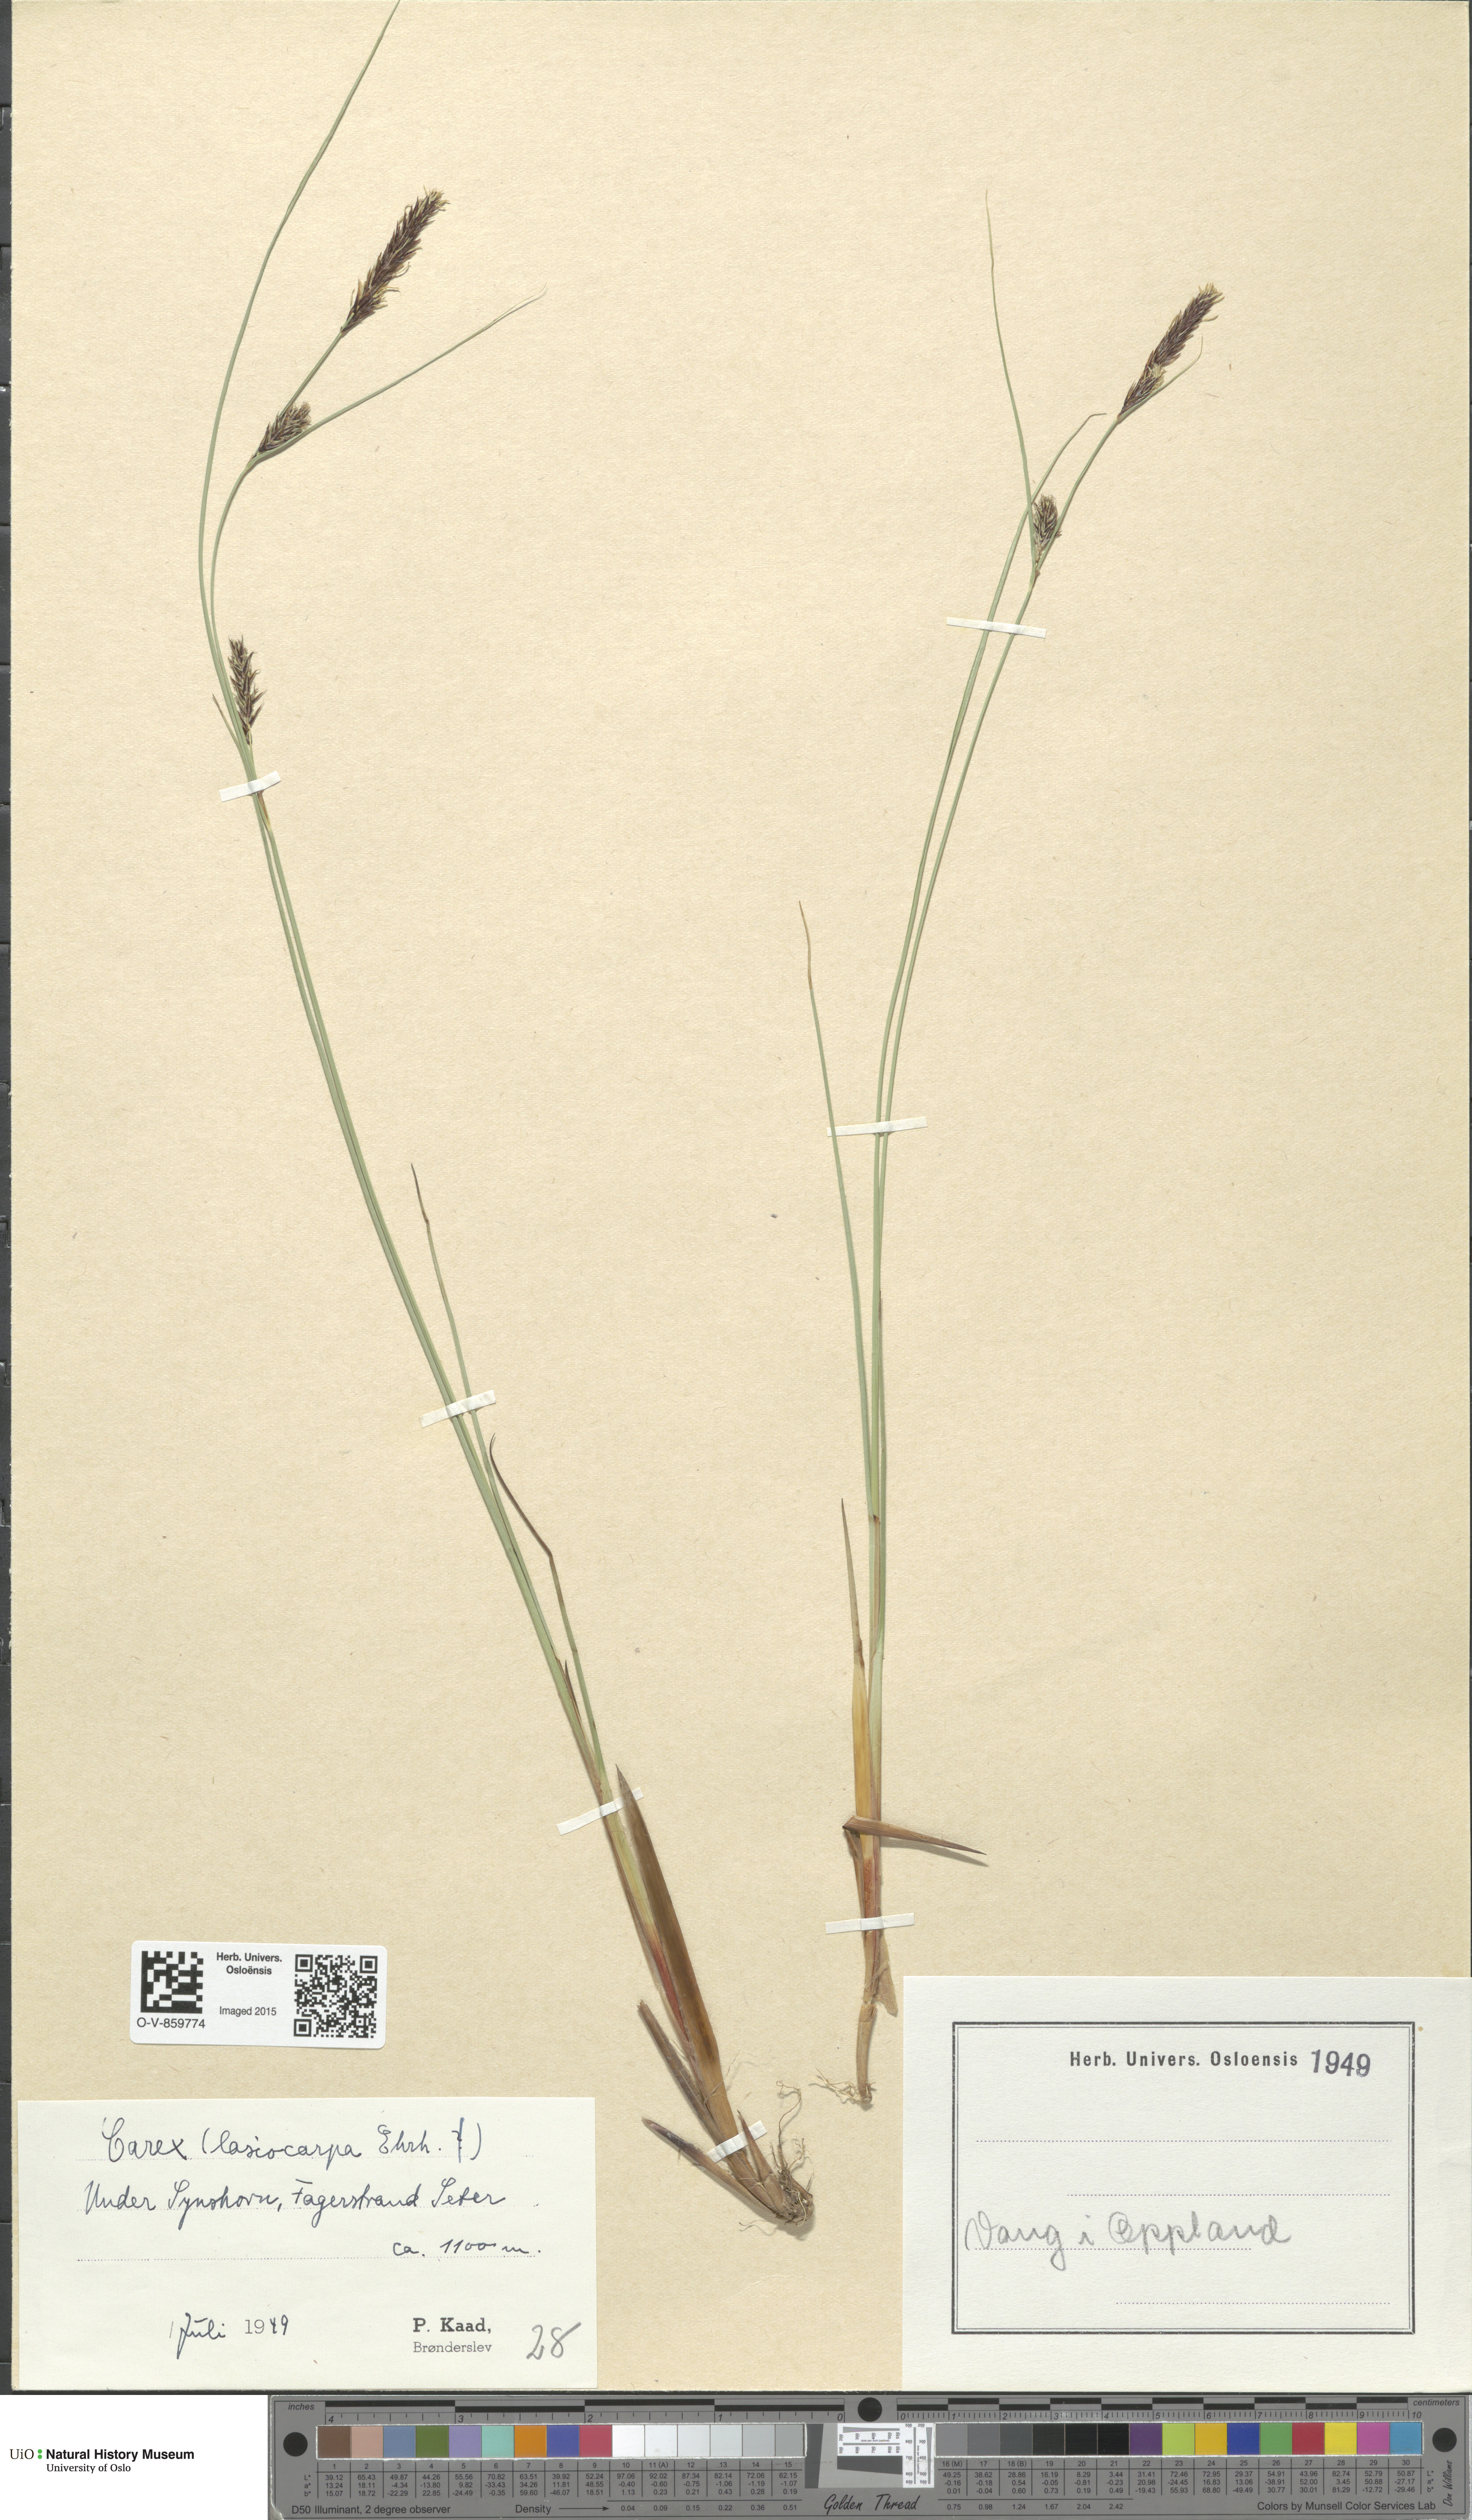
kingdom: Plantae
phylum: Tracheophyta
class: Liliopsida
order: Poales
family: Cyperaceae
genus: Carex
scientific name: Carex lasiocarpa
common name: Slender sedge
